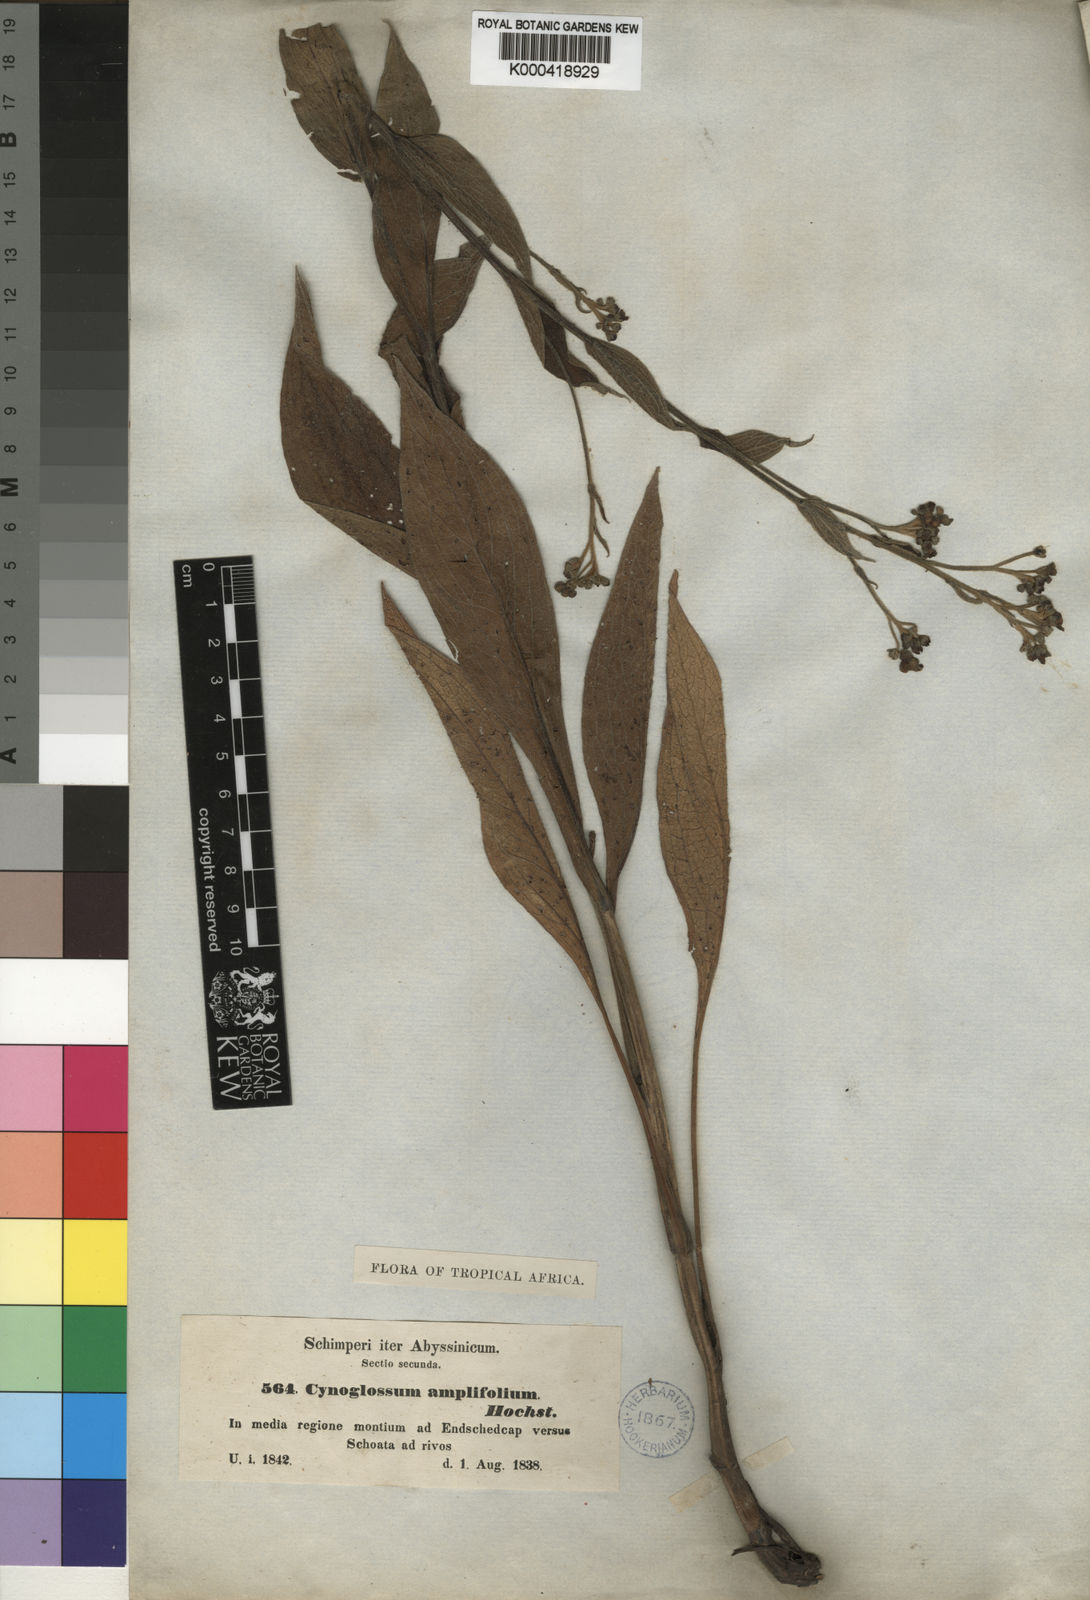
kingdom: Plantae
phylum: Tracheophyta
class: Magnoliopsida
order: Boraginales
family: Boraginaceae
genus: Cynoglossum
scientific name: Cynoglossum amplifolium
